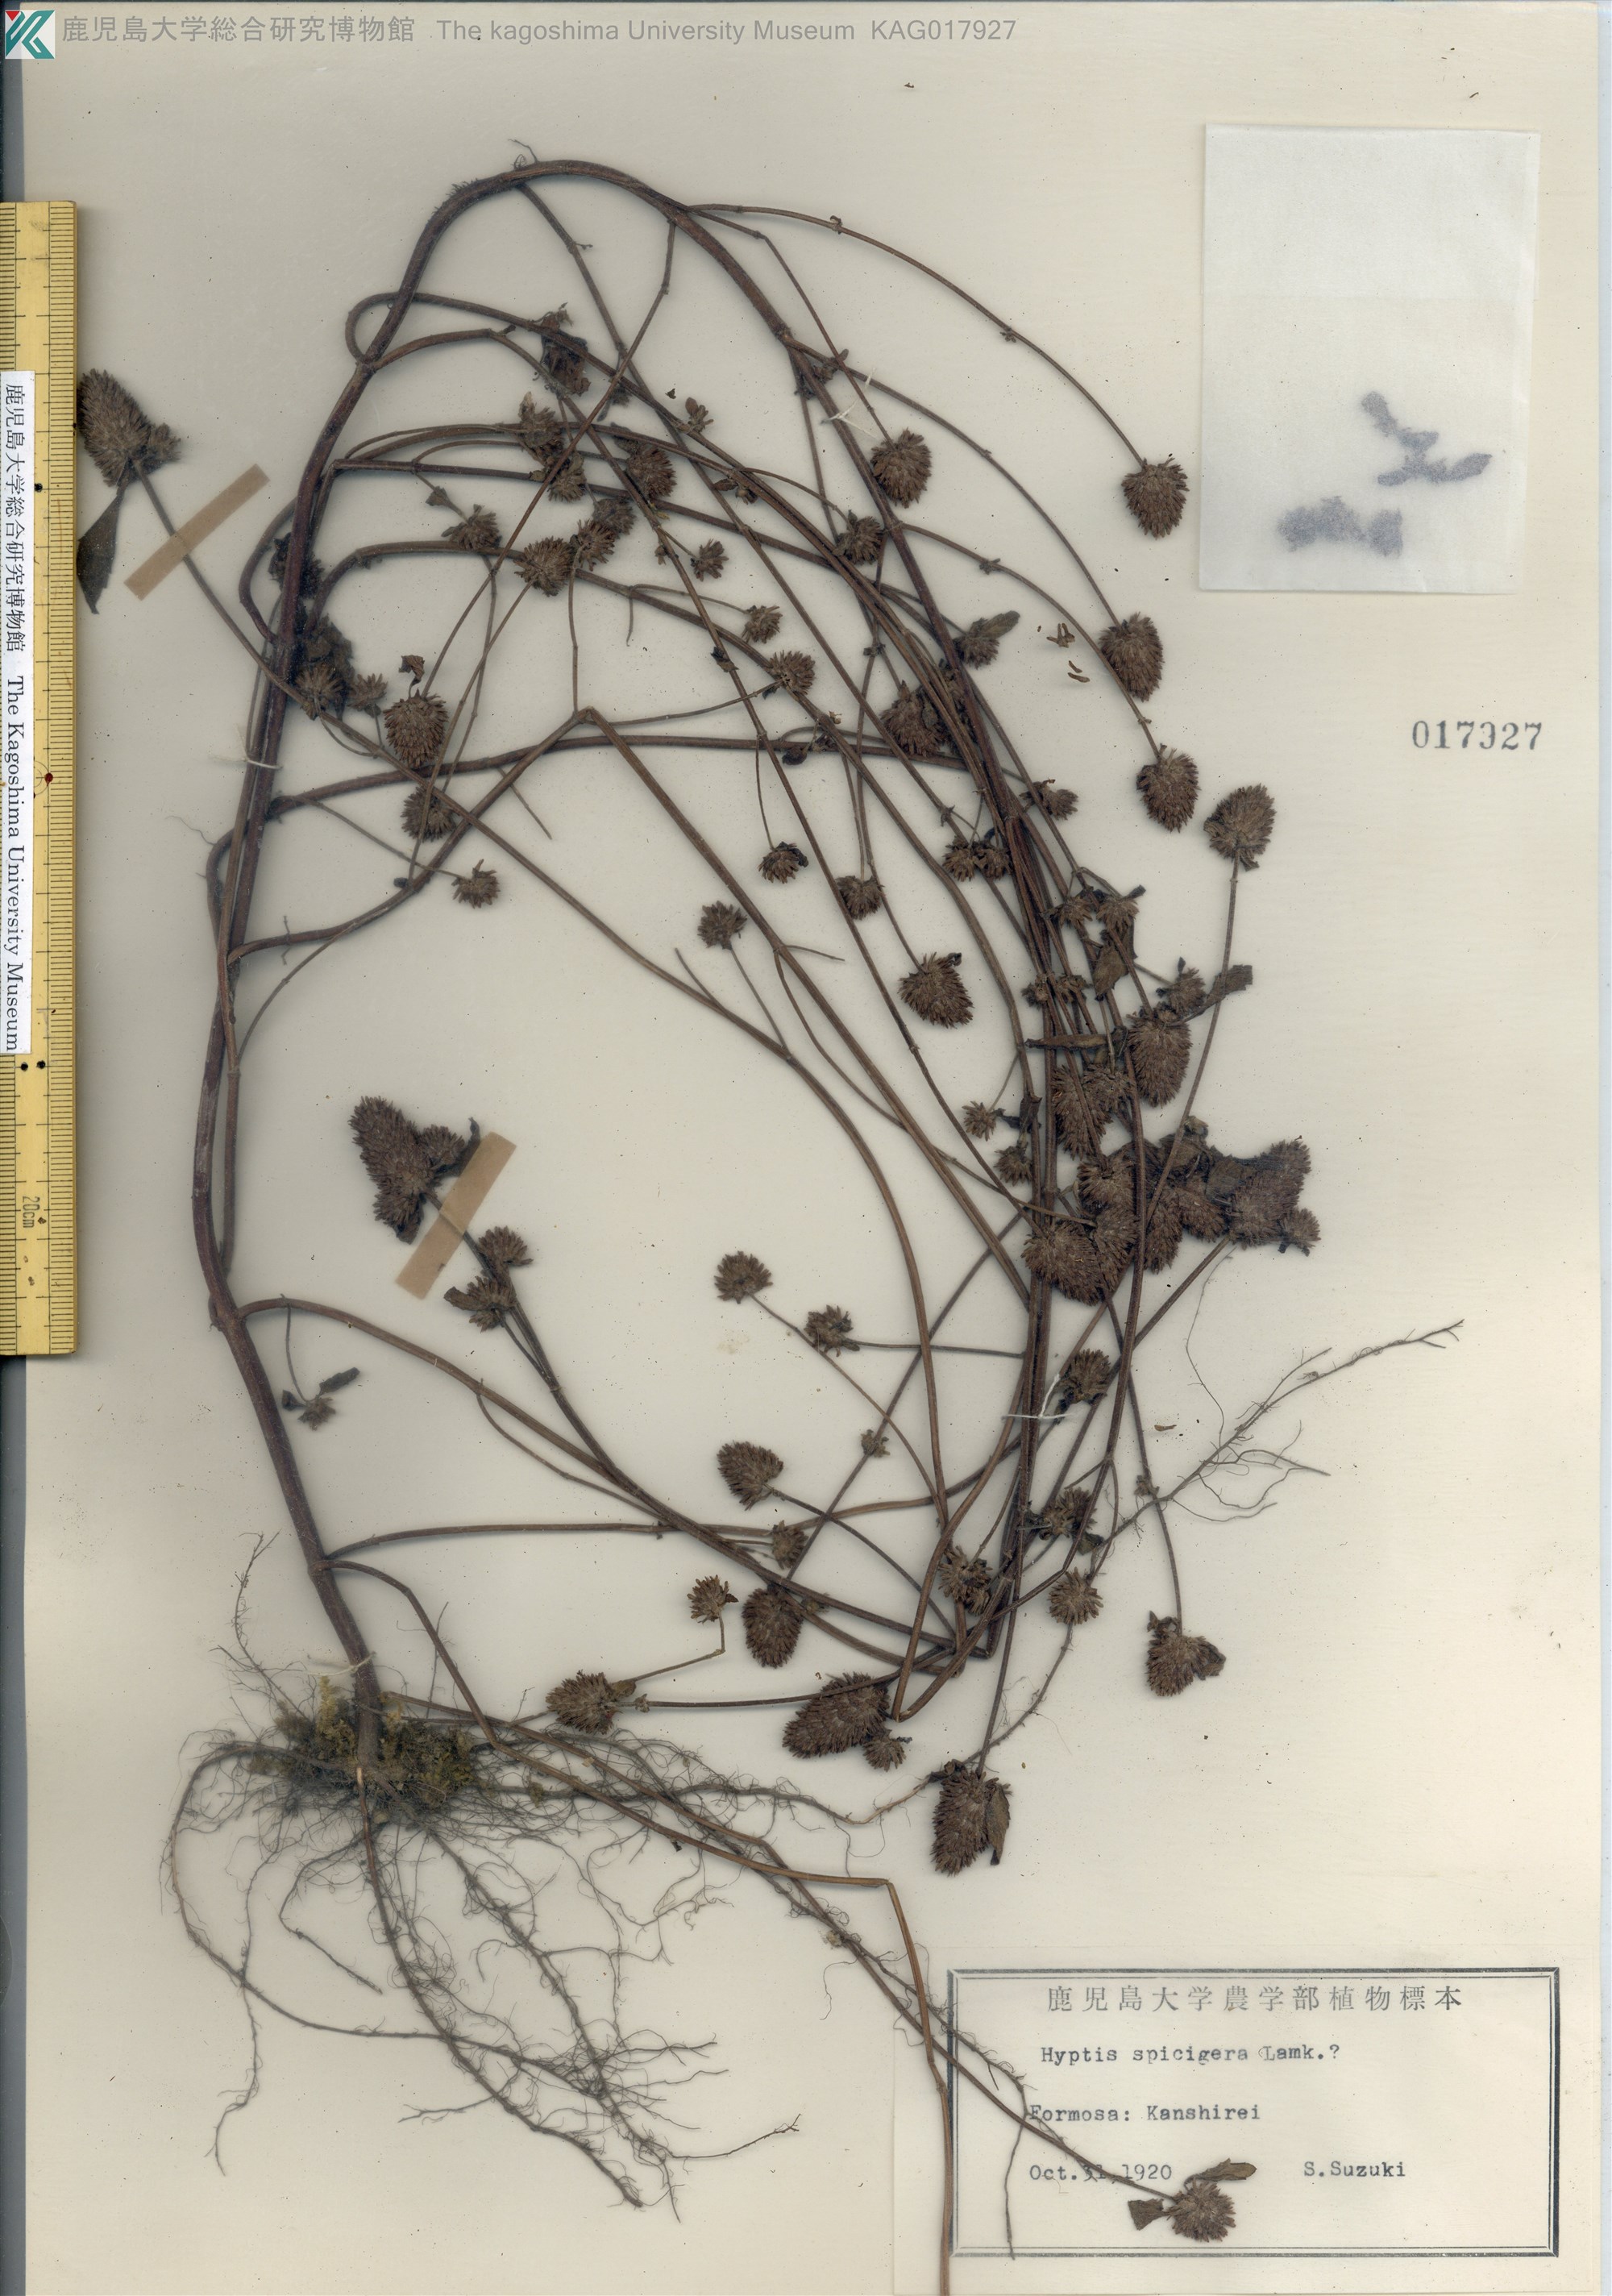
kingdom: Plantae
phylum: Tracheophyta
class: Magnoliopsida
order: Lamiales
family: Lamiaceae
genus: Cantinoa
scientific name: Cantinoa americana
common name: Black-sesame
